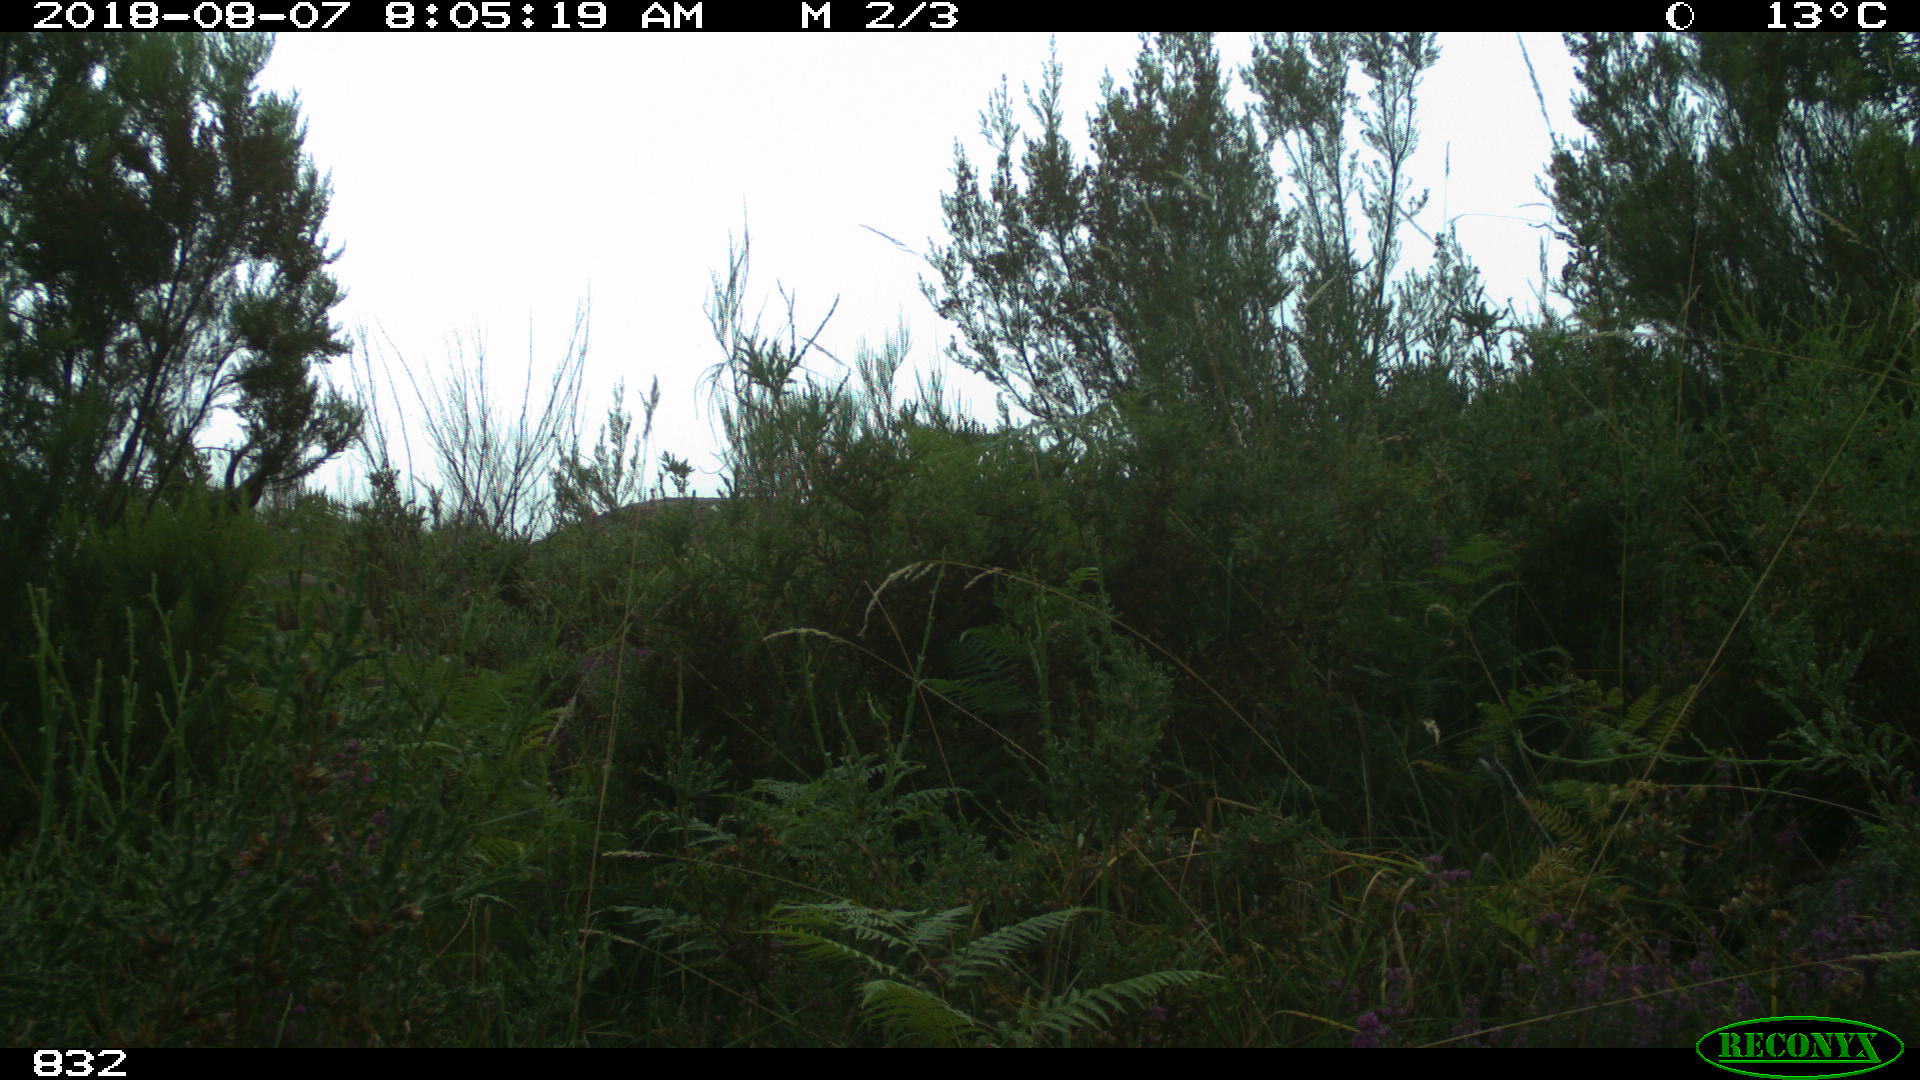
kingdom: Animalia
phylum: Chordata
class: Mammalia
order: Artiodactyla
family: Cervidae
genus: Capreolus
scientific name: Capreolus capreolus
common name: Western roe deer
